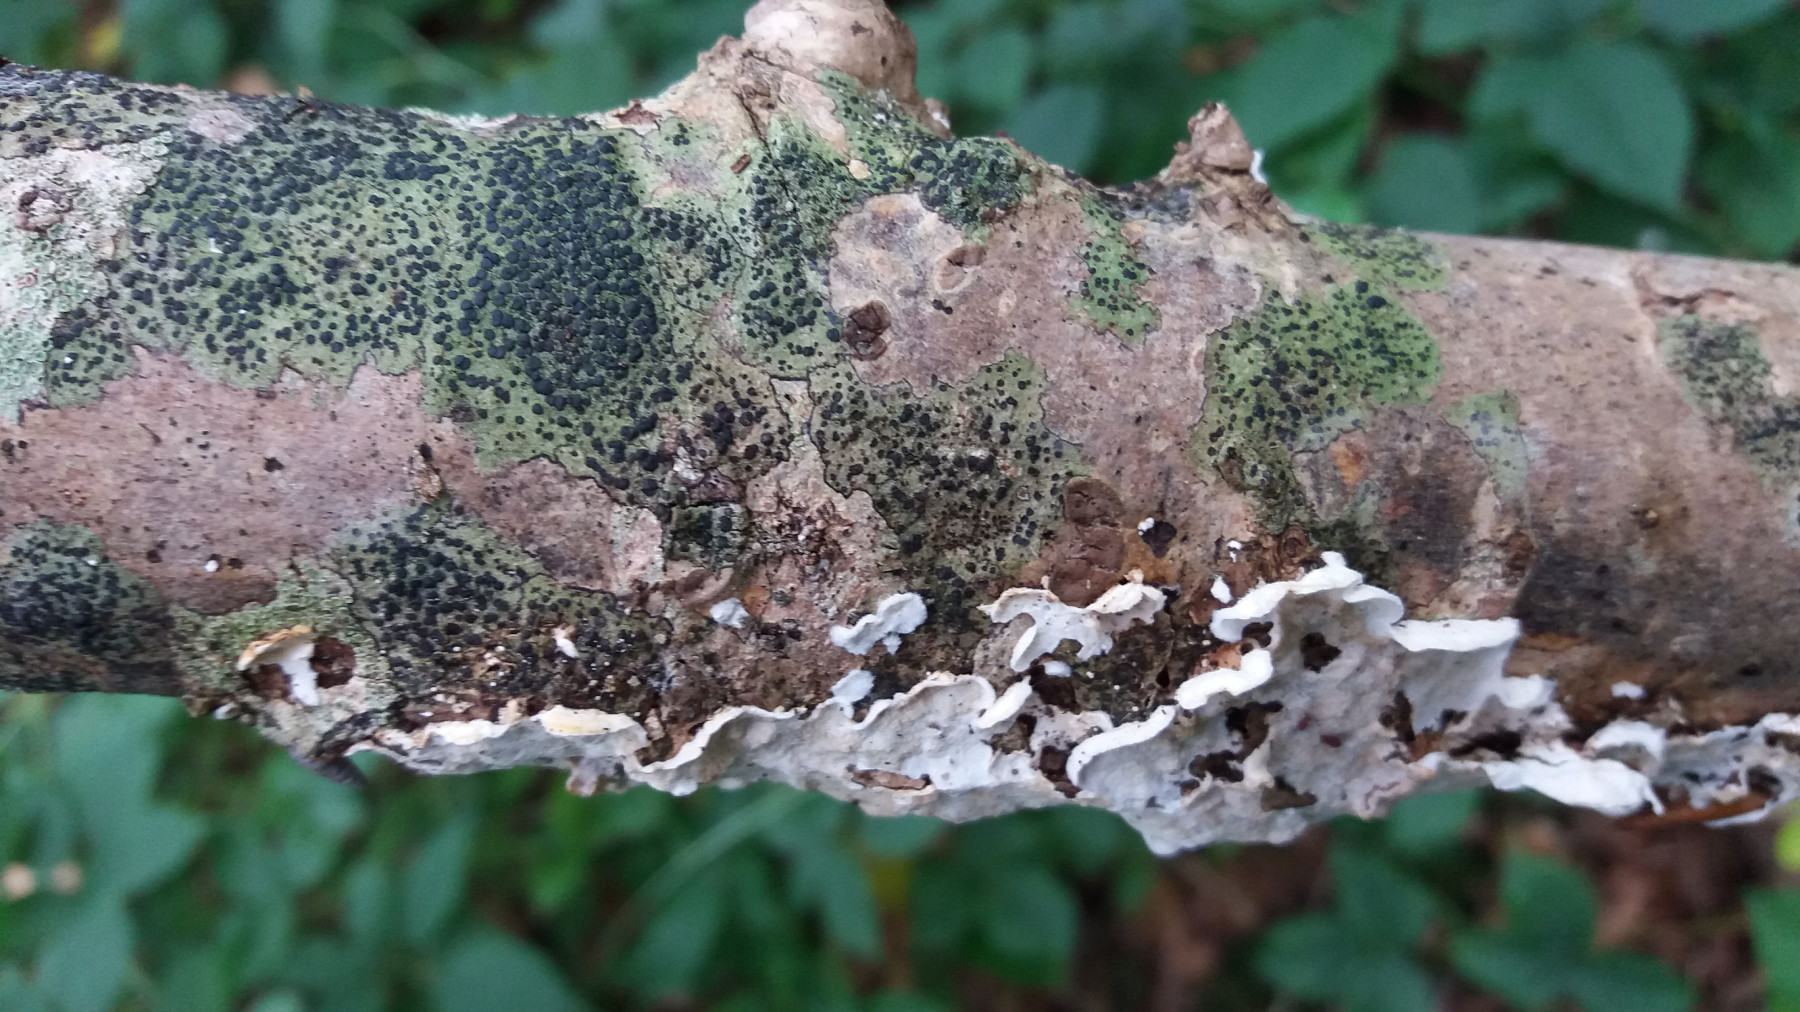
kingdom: Fungi
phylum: Ascomycota
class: Lecanoromycetes
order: Lecanorales
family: Lecanoraceae
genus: Lecidella
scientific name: Lecidella elaeochroma
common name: grågrøn skivelav
